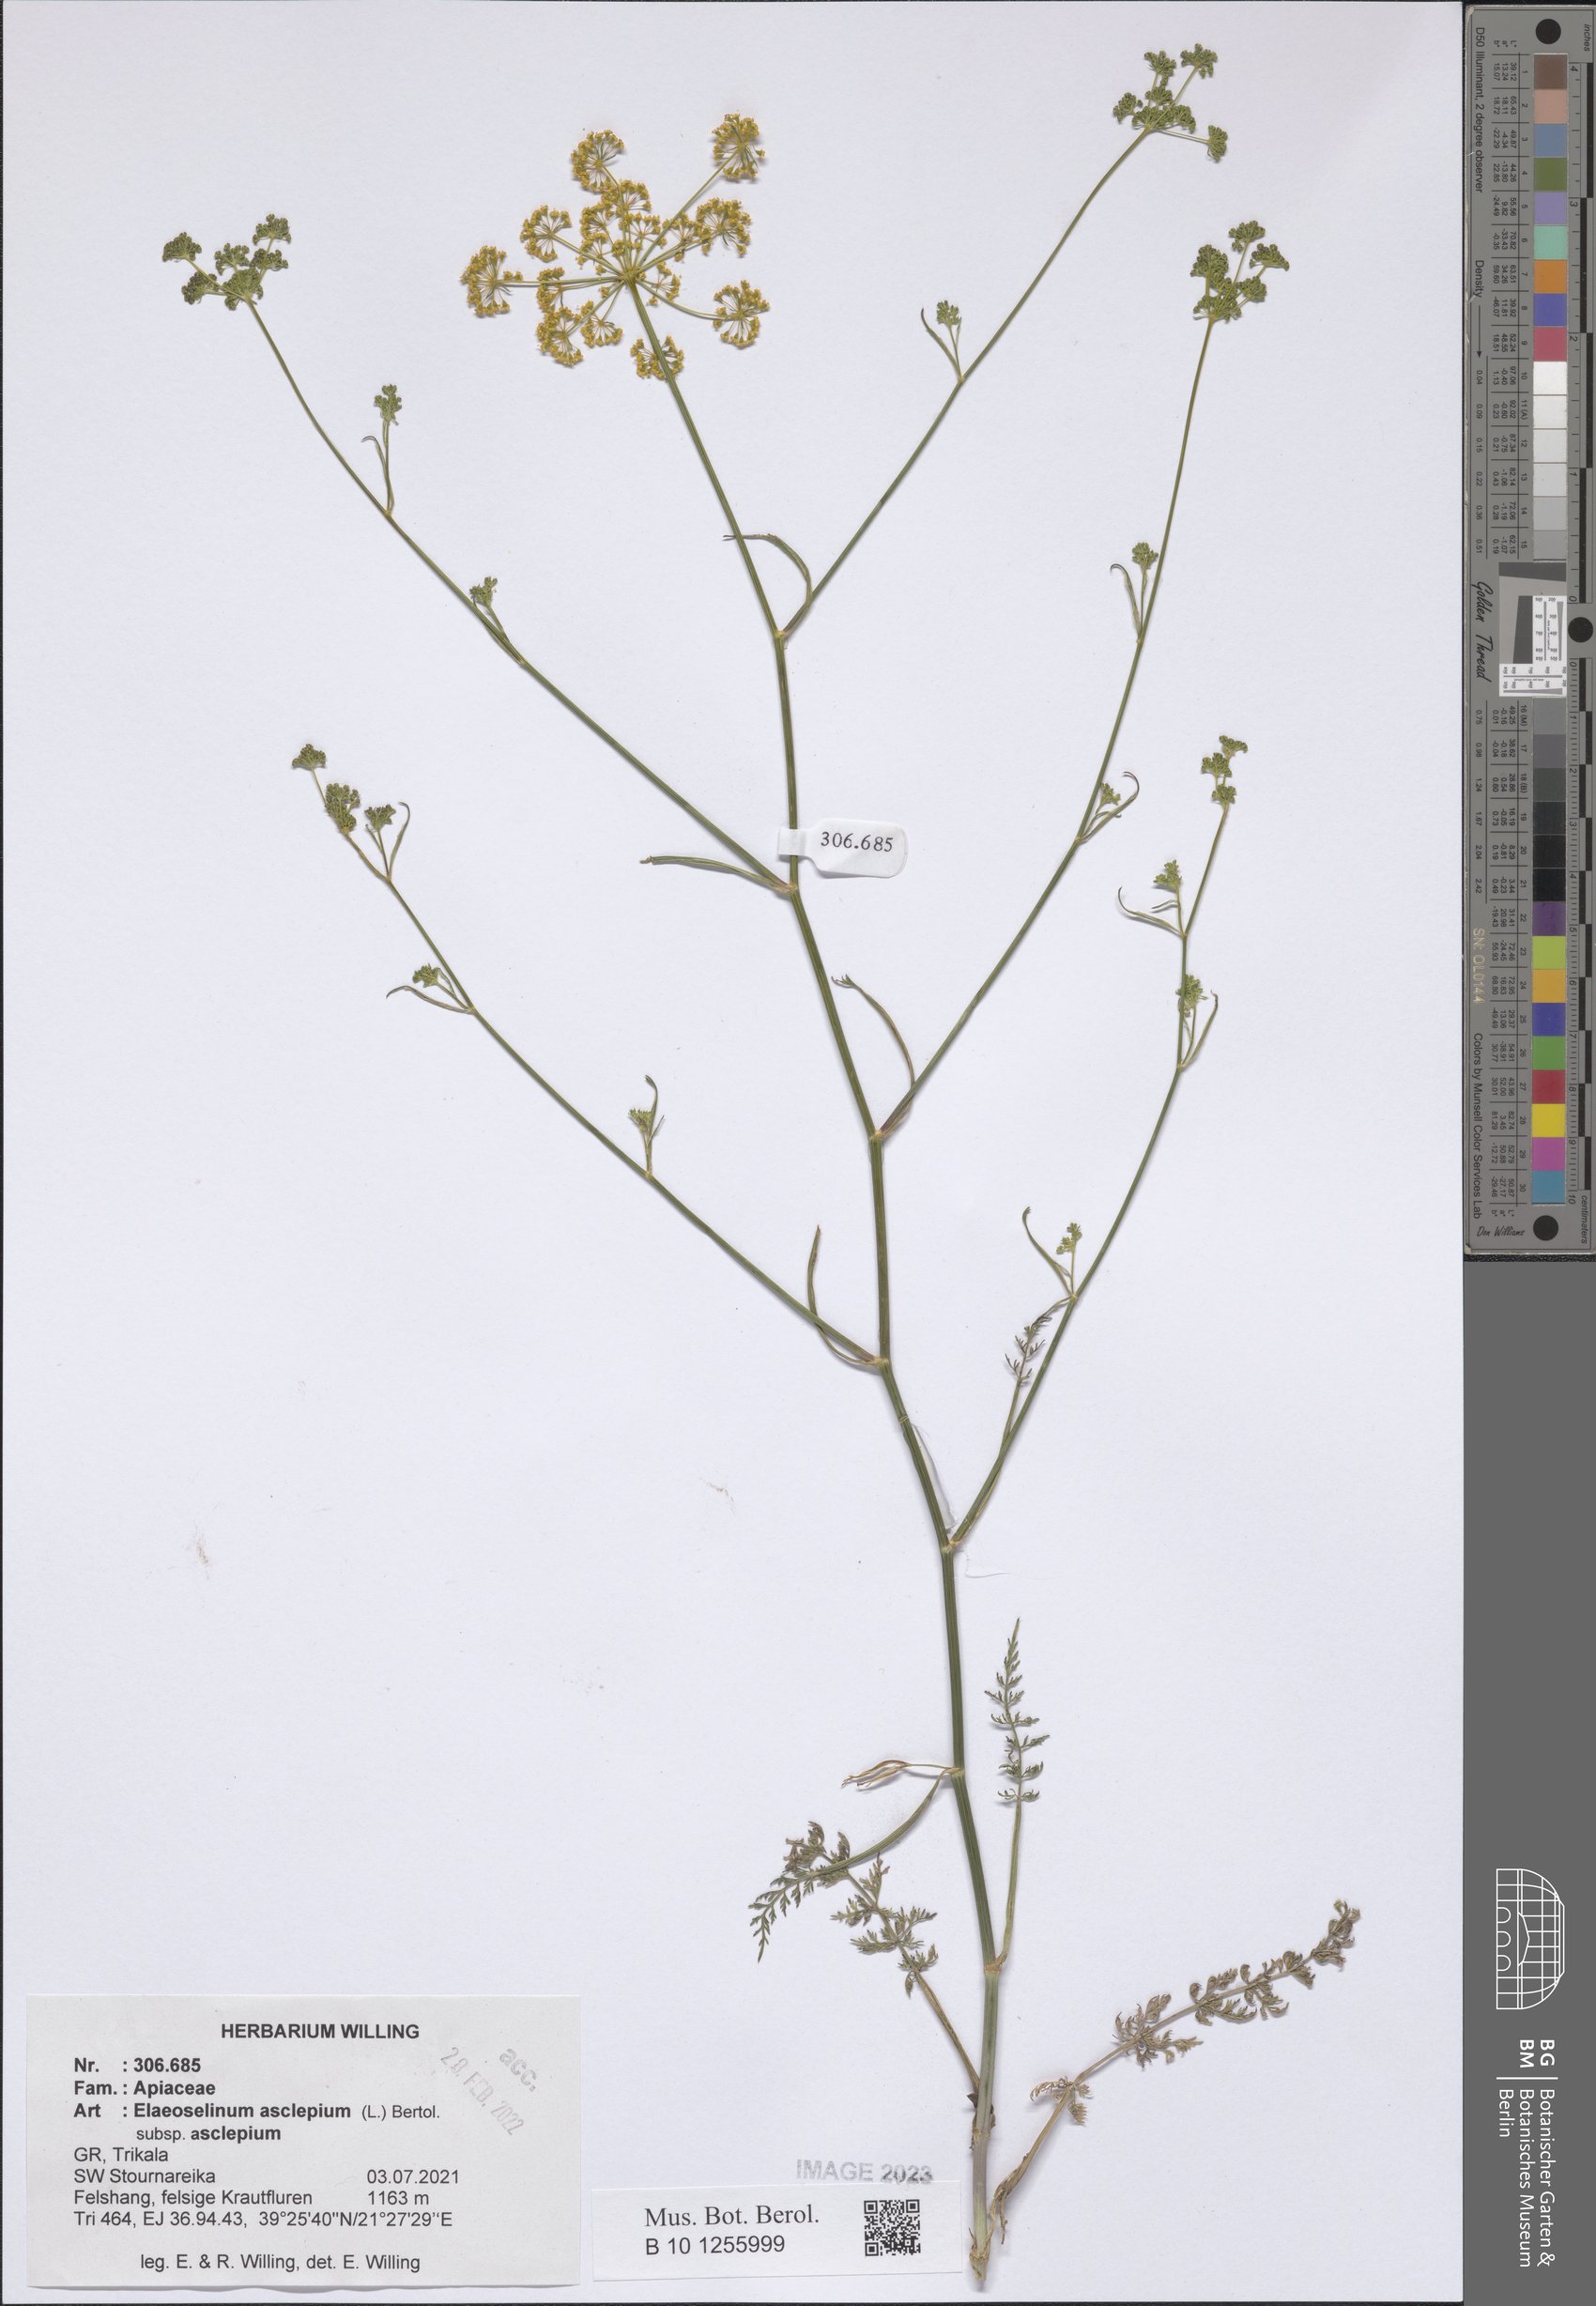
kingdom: Plantae
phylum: Tracheophyta
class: Magnoliopsida
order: Apiales
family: Apiaceae
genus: Thapsia
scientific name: Thapsia asclepium
